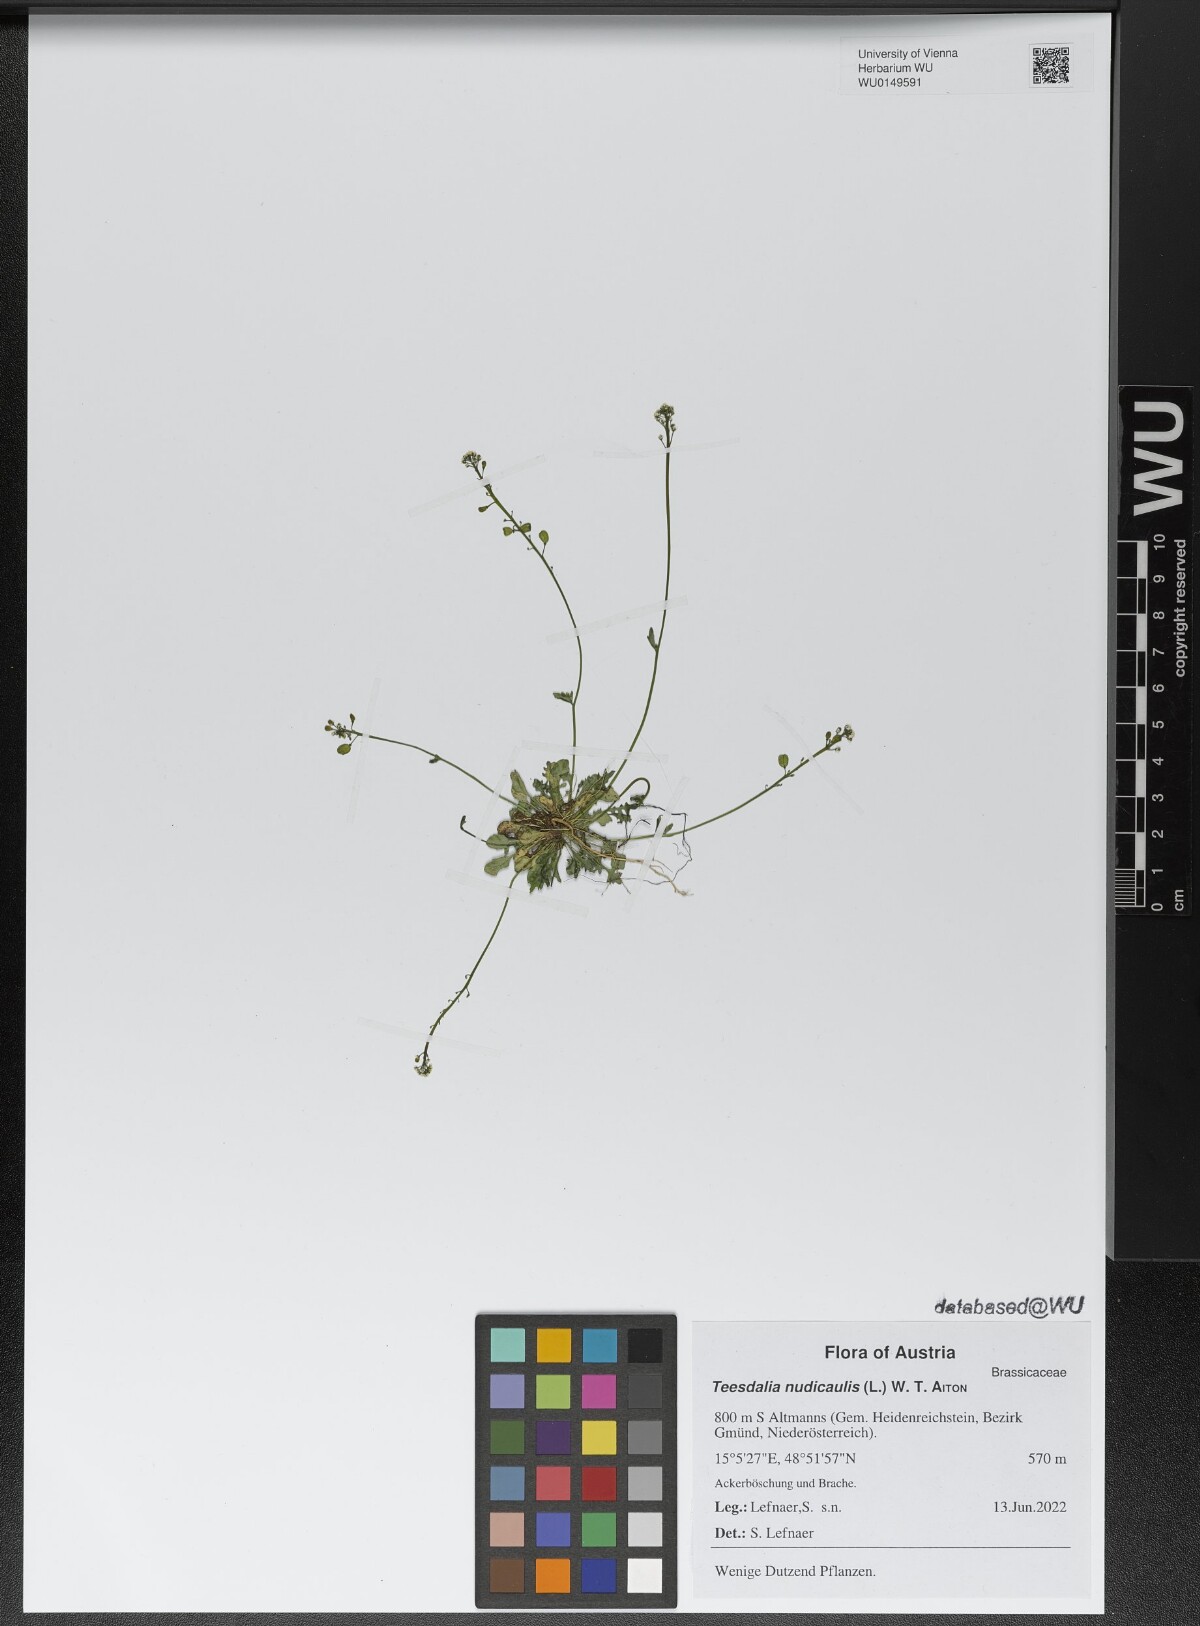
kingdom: Plantae
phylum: Tracheophyta
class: Magnoliopsida
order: Brassicales
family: Brassicaceae
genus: Teesdalia
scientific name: Teesdalia nudicaulis
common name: Shepherd's cress
